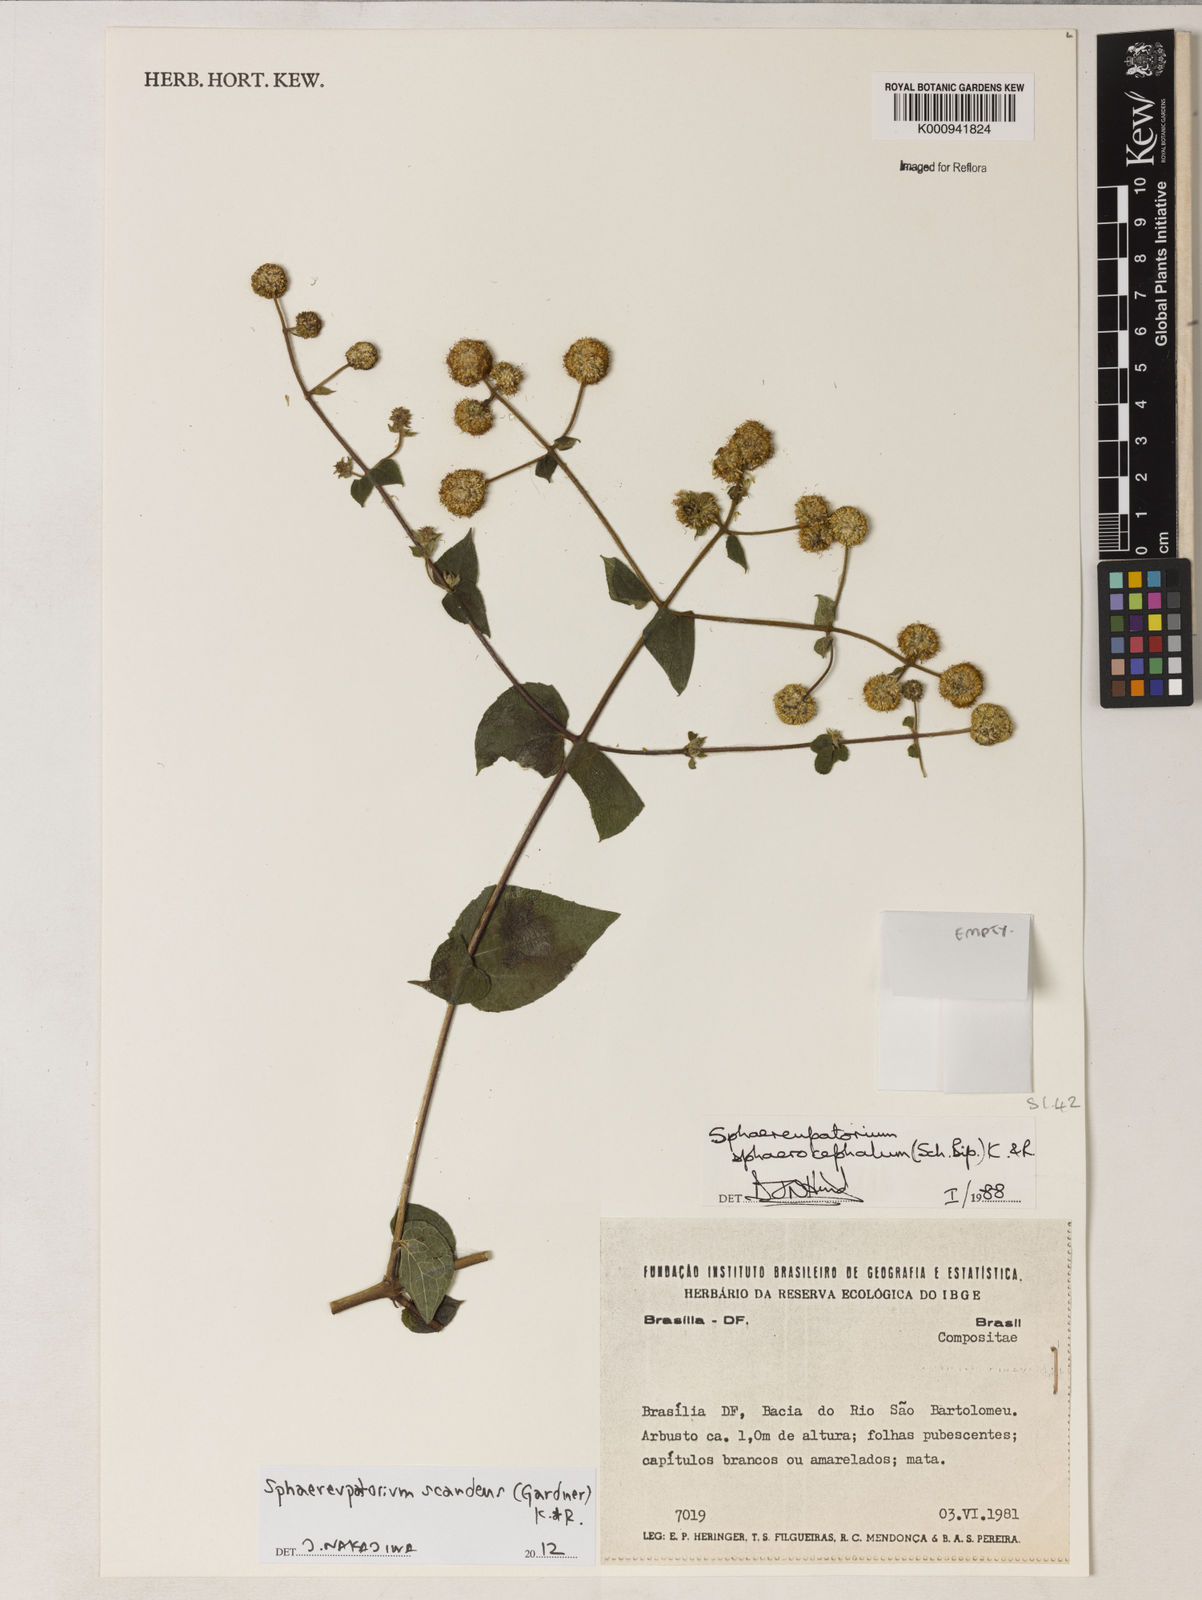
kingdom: Plantae
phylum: Tracheophyta
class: Magnoliopsida
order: Asterales
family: Asteraceae
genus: Sphaereupatorium
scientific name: Sphaereupatorium scandens
